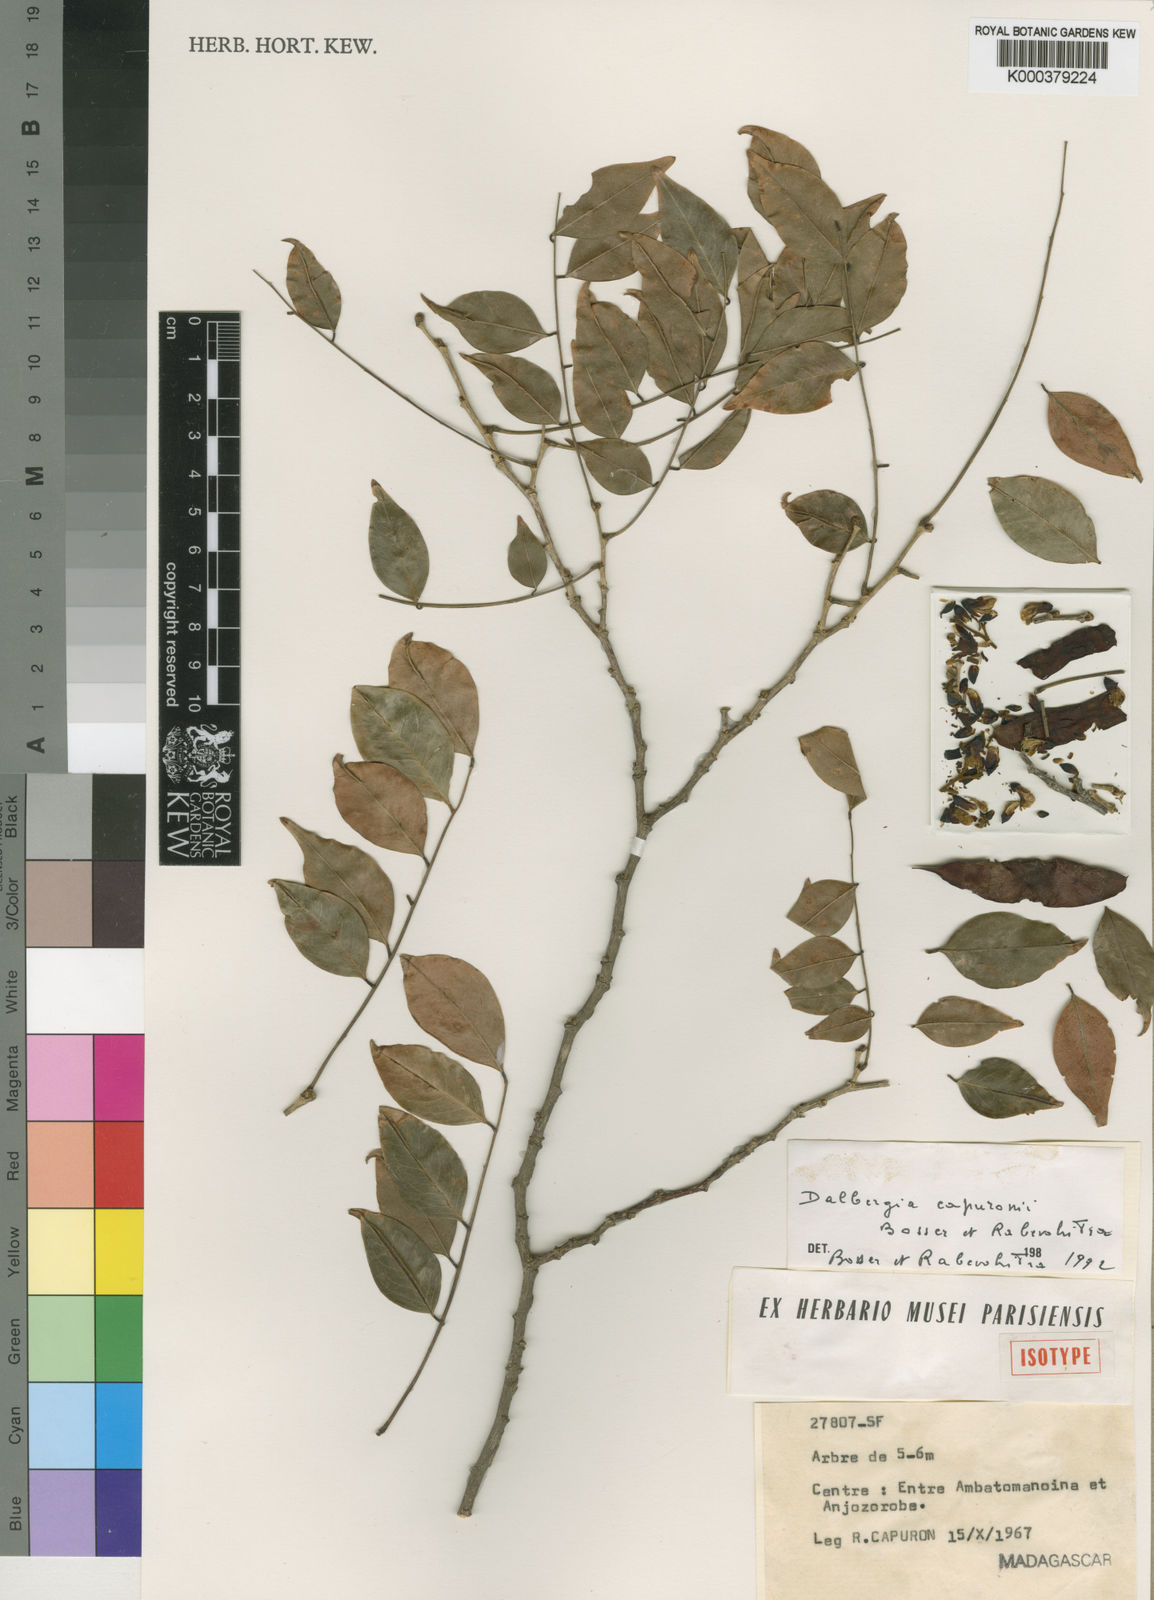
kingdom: Plantae
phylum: Tracheophyta
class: Magnoliopsida
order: Fabales
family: Fabaceae
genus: Dalbergia
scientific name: Dalbergia capuronii
